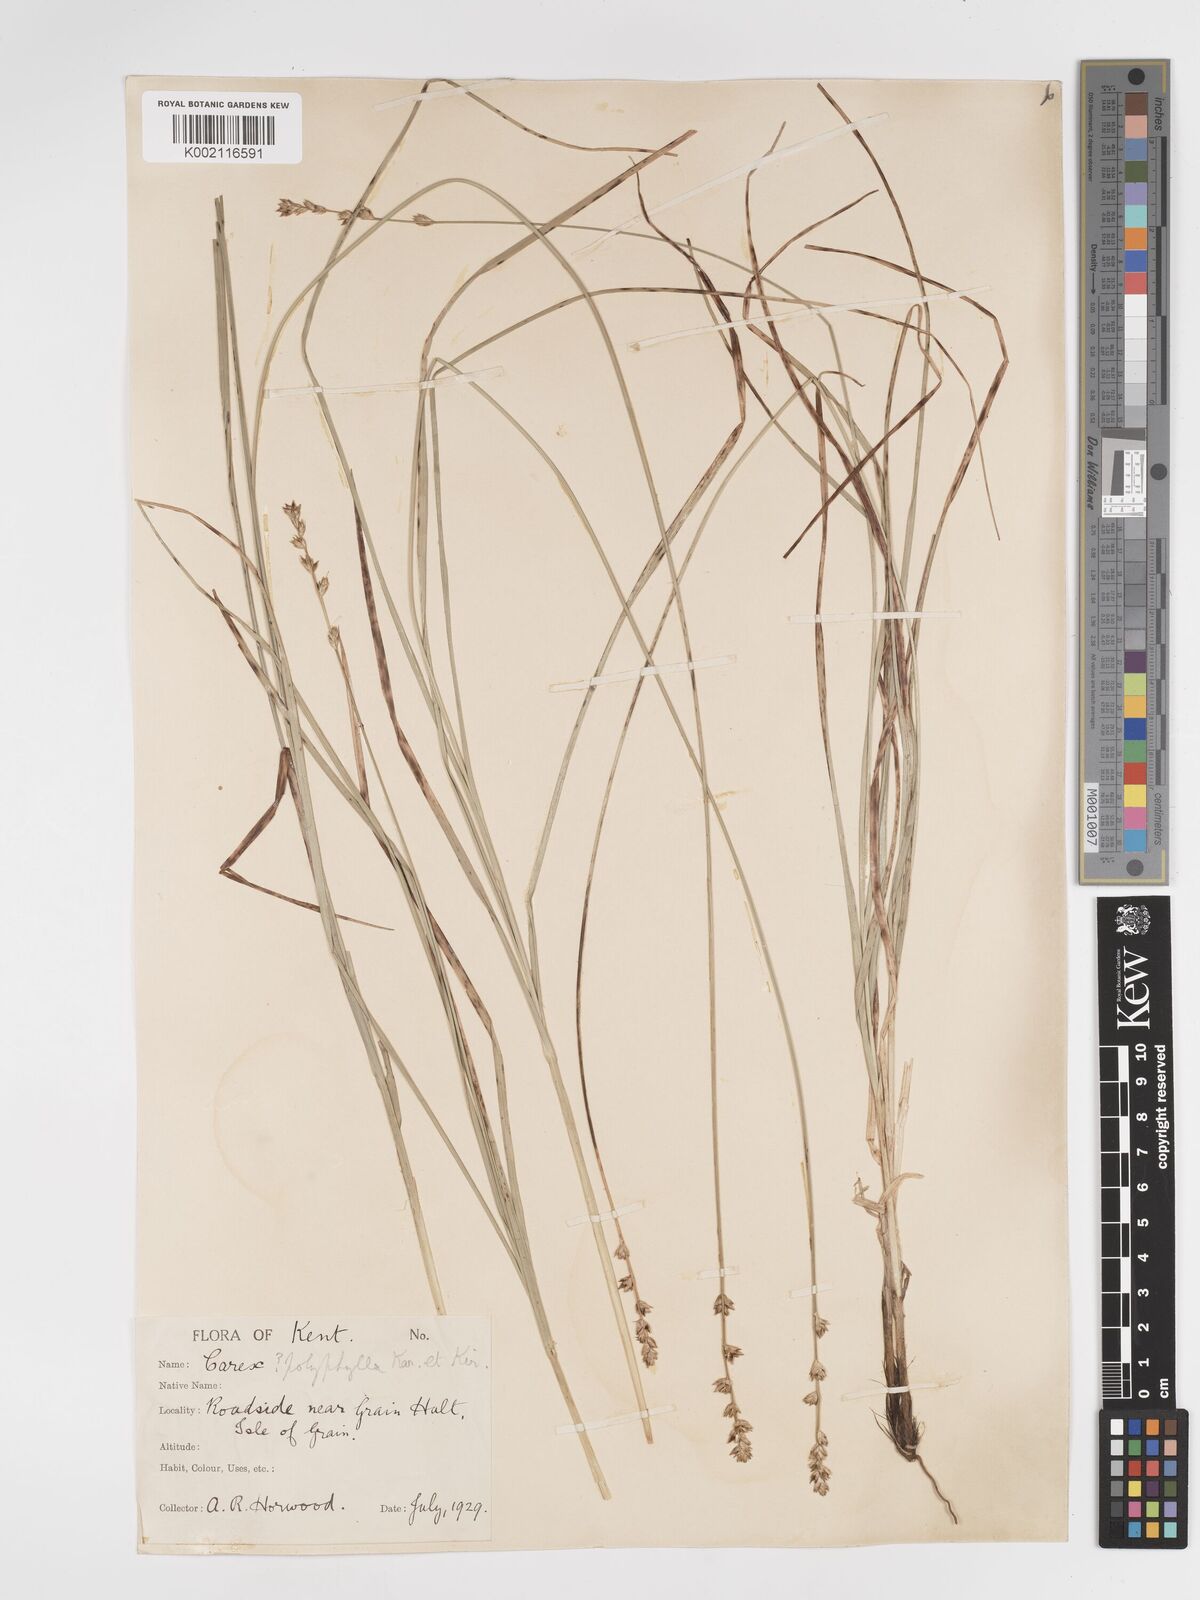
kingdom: Plantae
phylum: Tracheophyta
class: Liliopsida
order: Poales
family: Cyperaceae
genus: Carex
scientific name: Carex divulsa
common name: Grassland sedge
